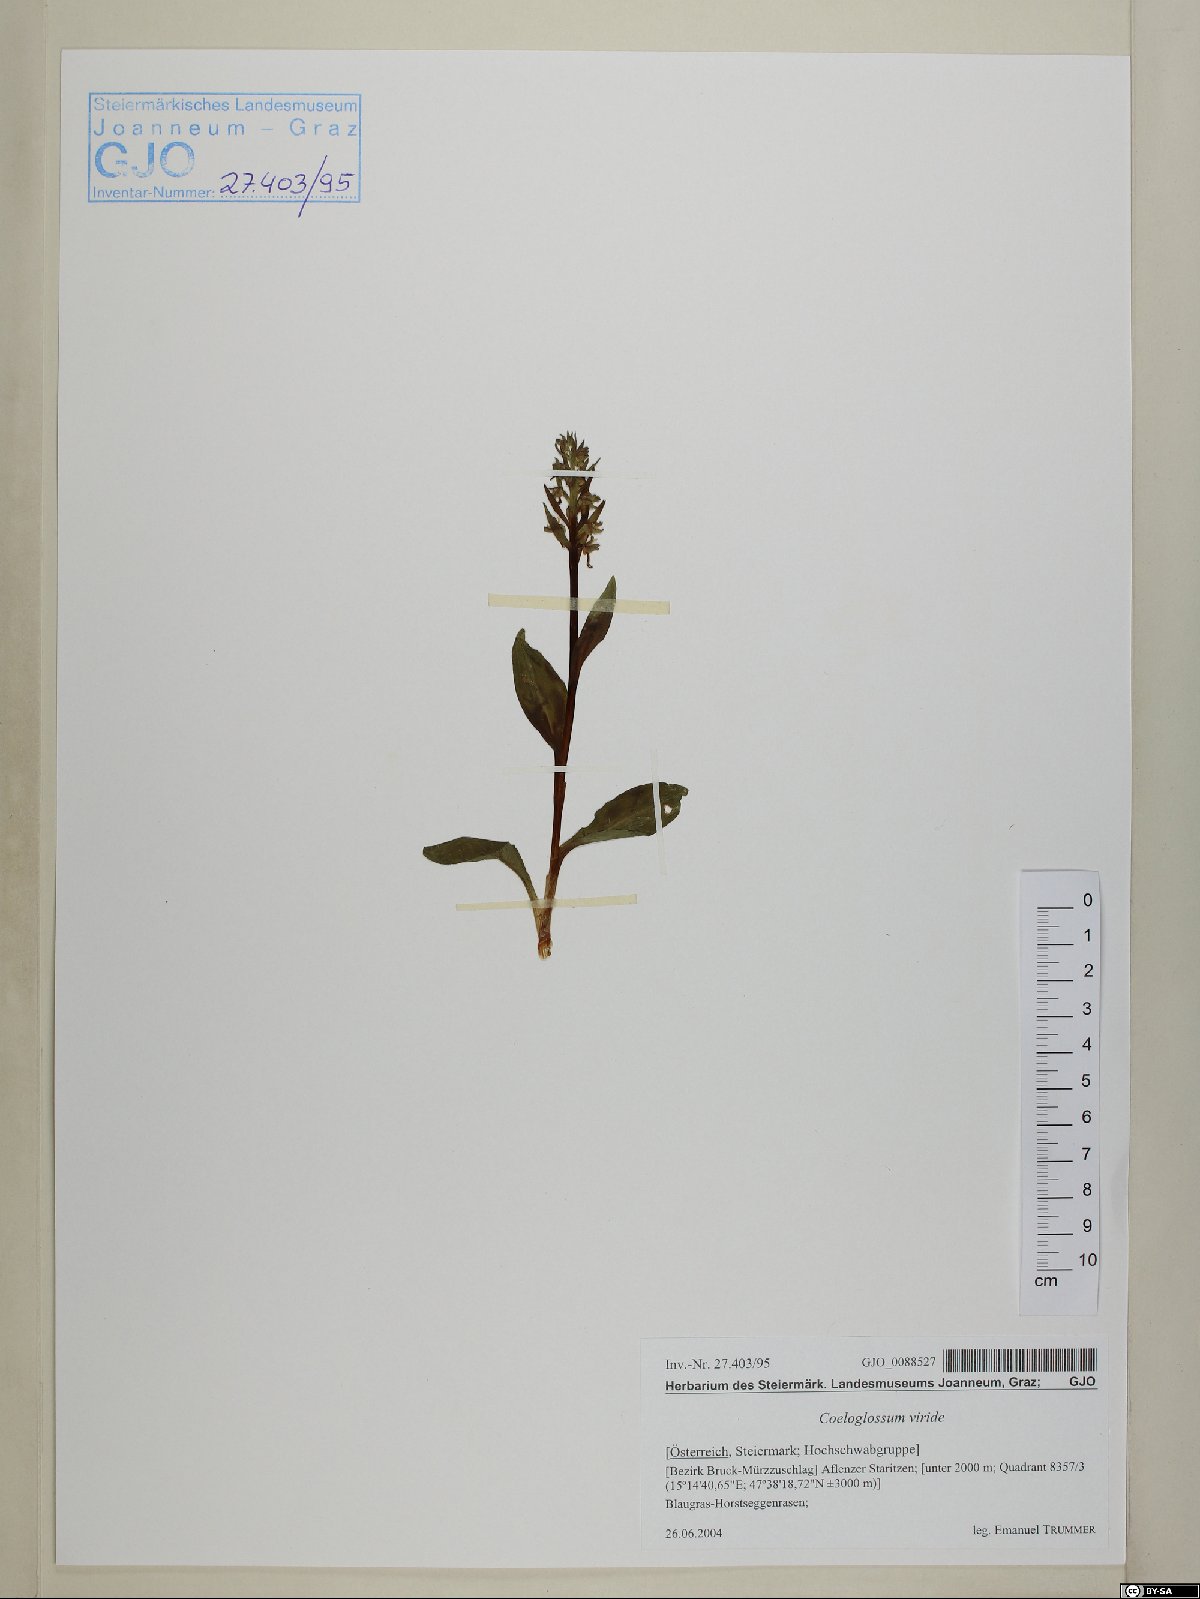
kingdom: Plantae
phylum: Tracheophyta
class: Liliopsida
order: Asparagales
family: Orchidaceae
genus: Dactylorhiza
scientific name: Dactylorhiza viridis
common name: Longbract frog orchid
